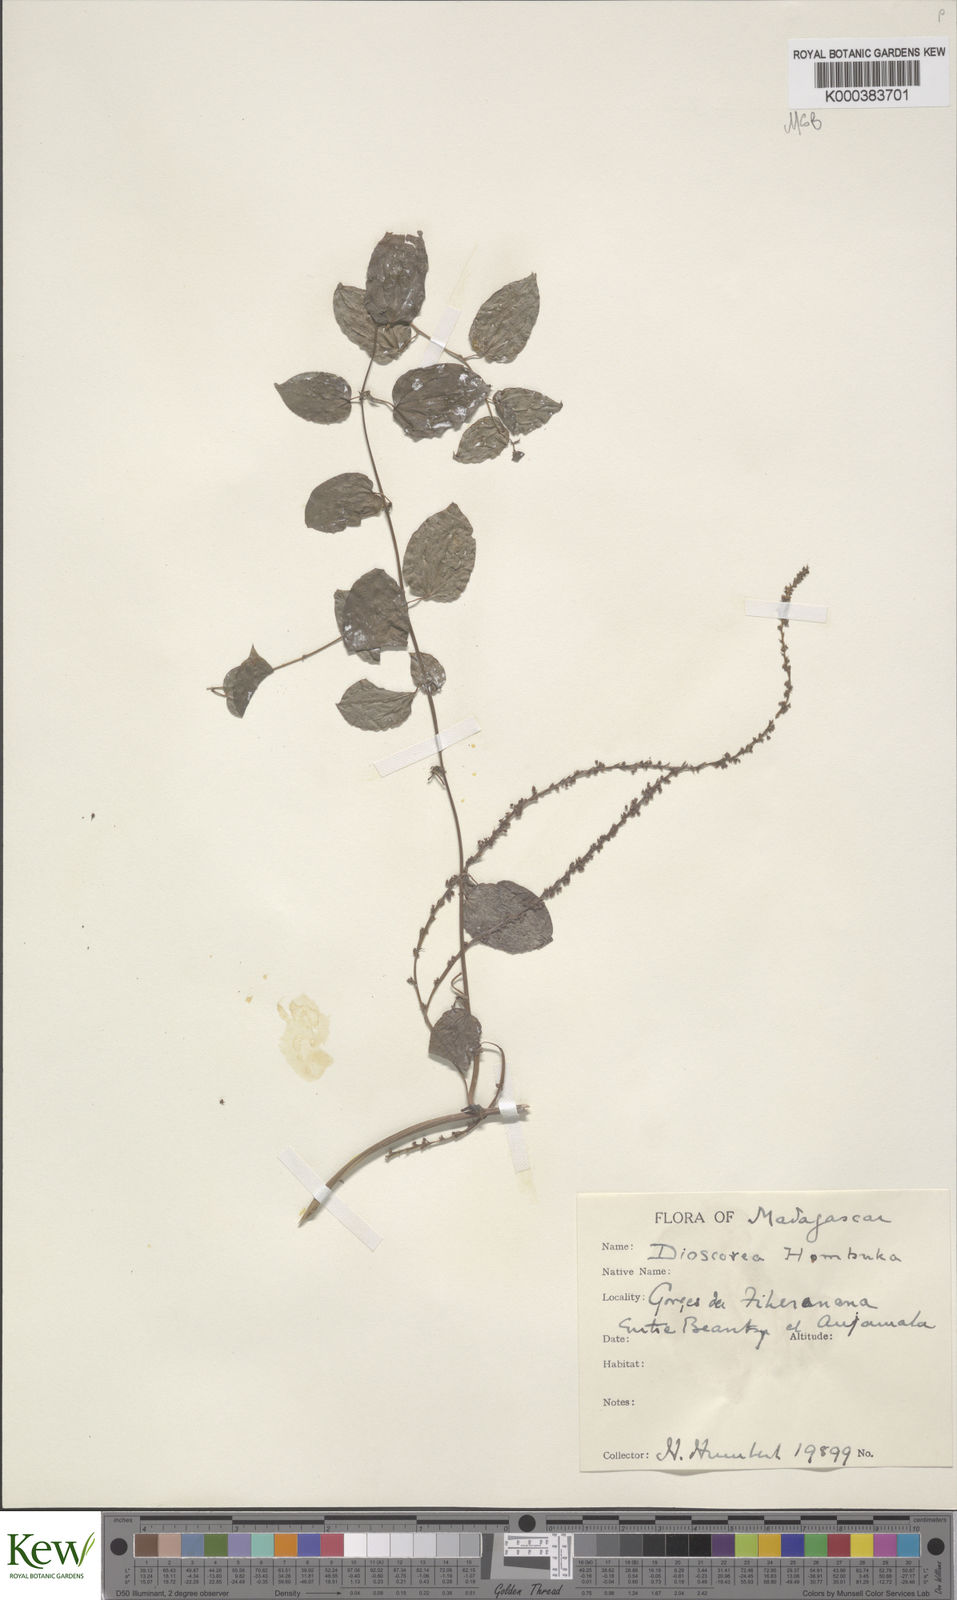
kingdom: Plantae
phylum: Tracheophyta
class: Liliopsida
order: Dioscoreales
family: Dioscoreaceae
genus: Dioscorea
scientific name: Dioscorea
